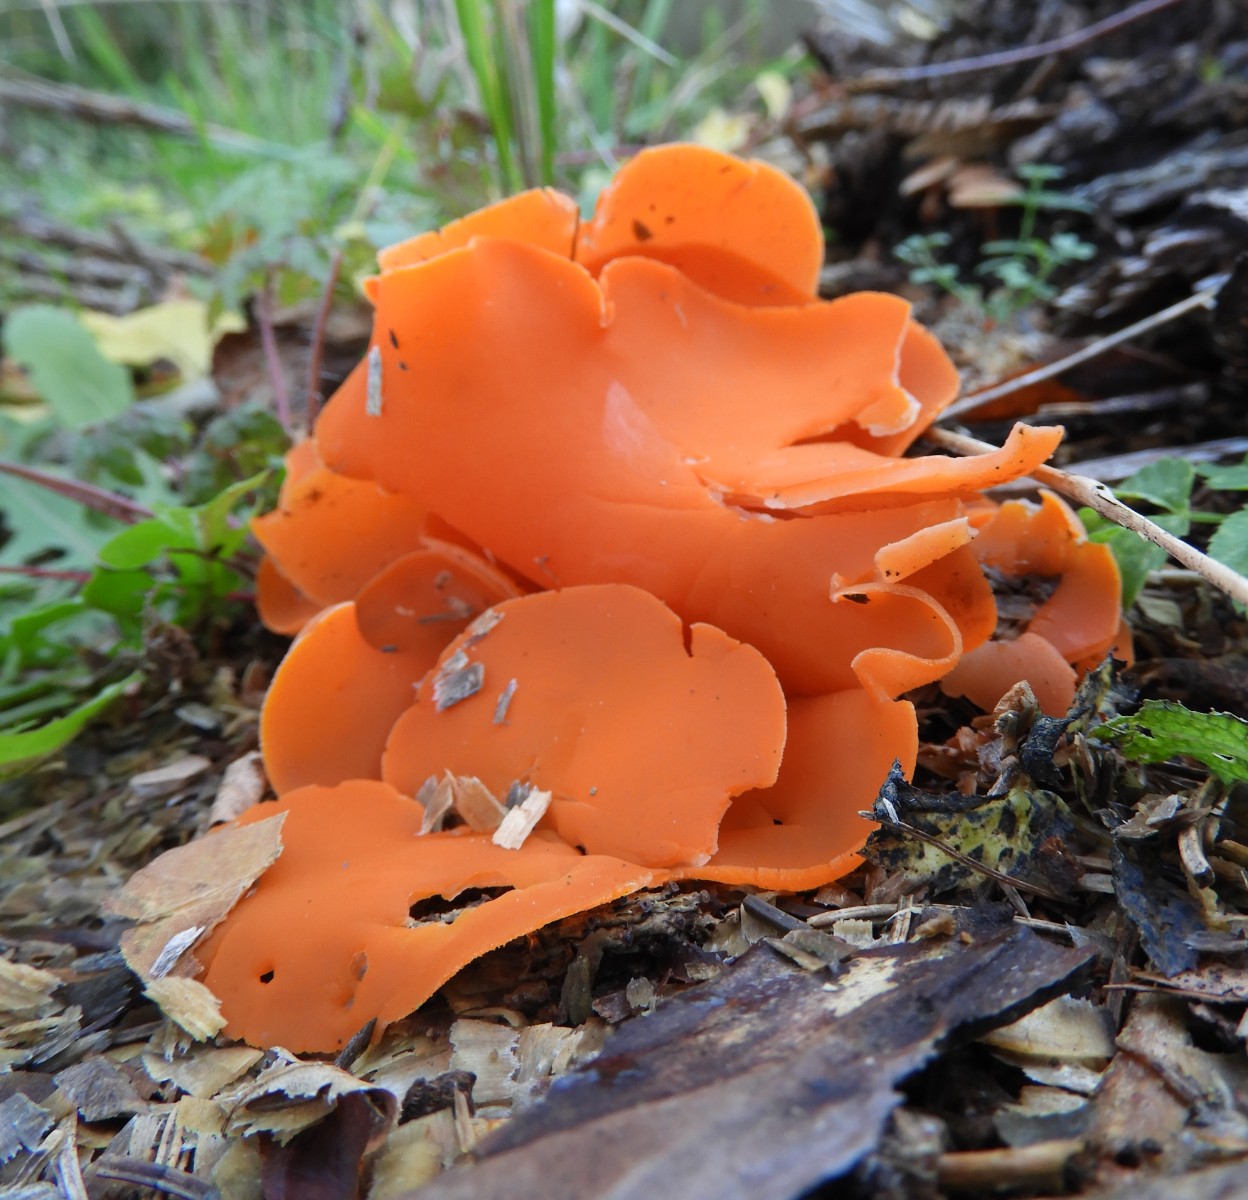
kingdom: Fungi
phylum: Ascomycota
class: Pezizomycetes
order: Pezizales
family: Pyronemataceae
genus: Aleuria
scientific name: Aleuria aurantia
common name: almindelig orangebæger
